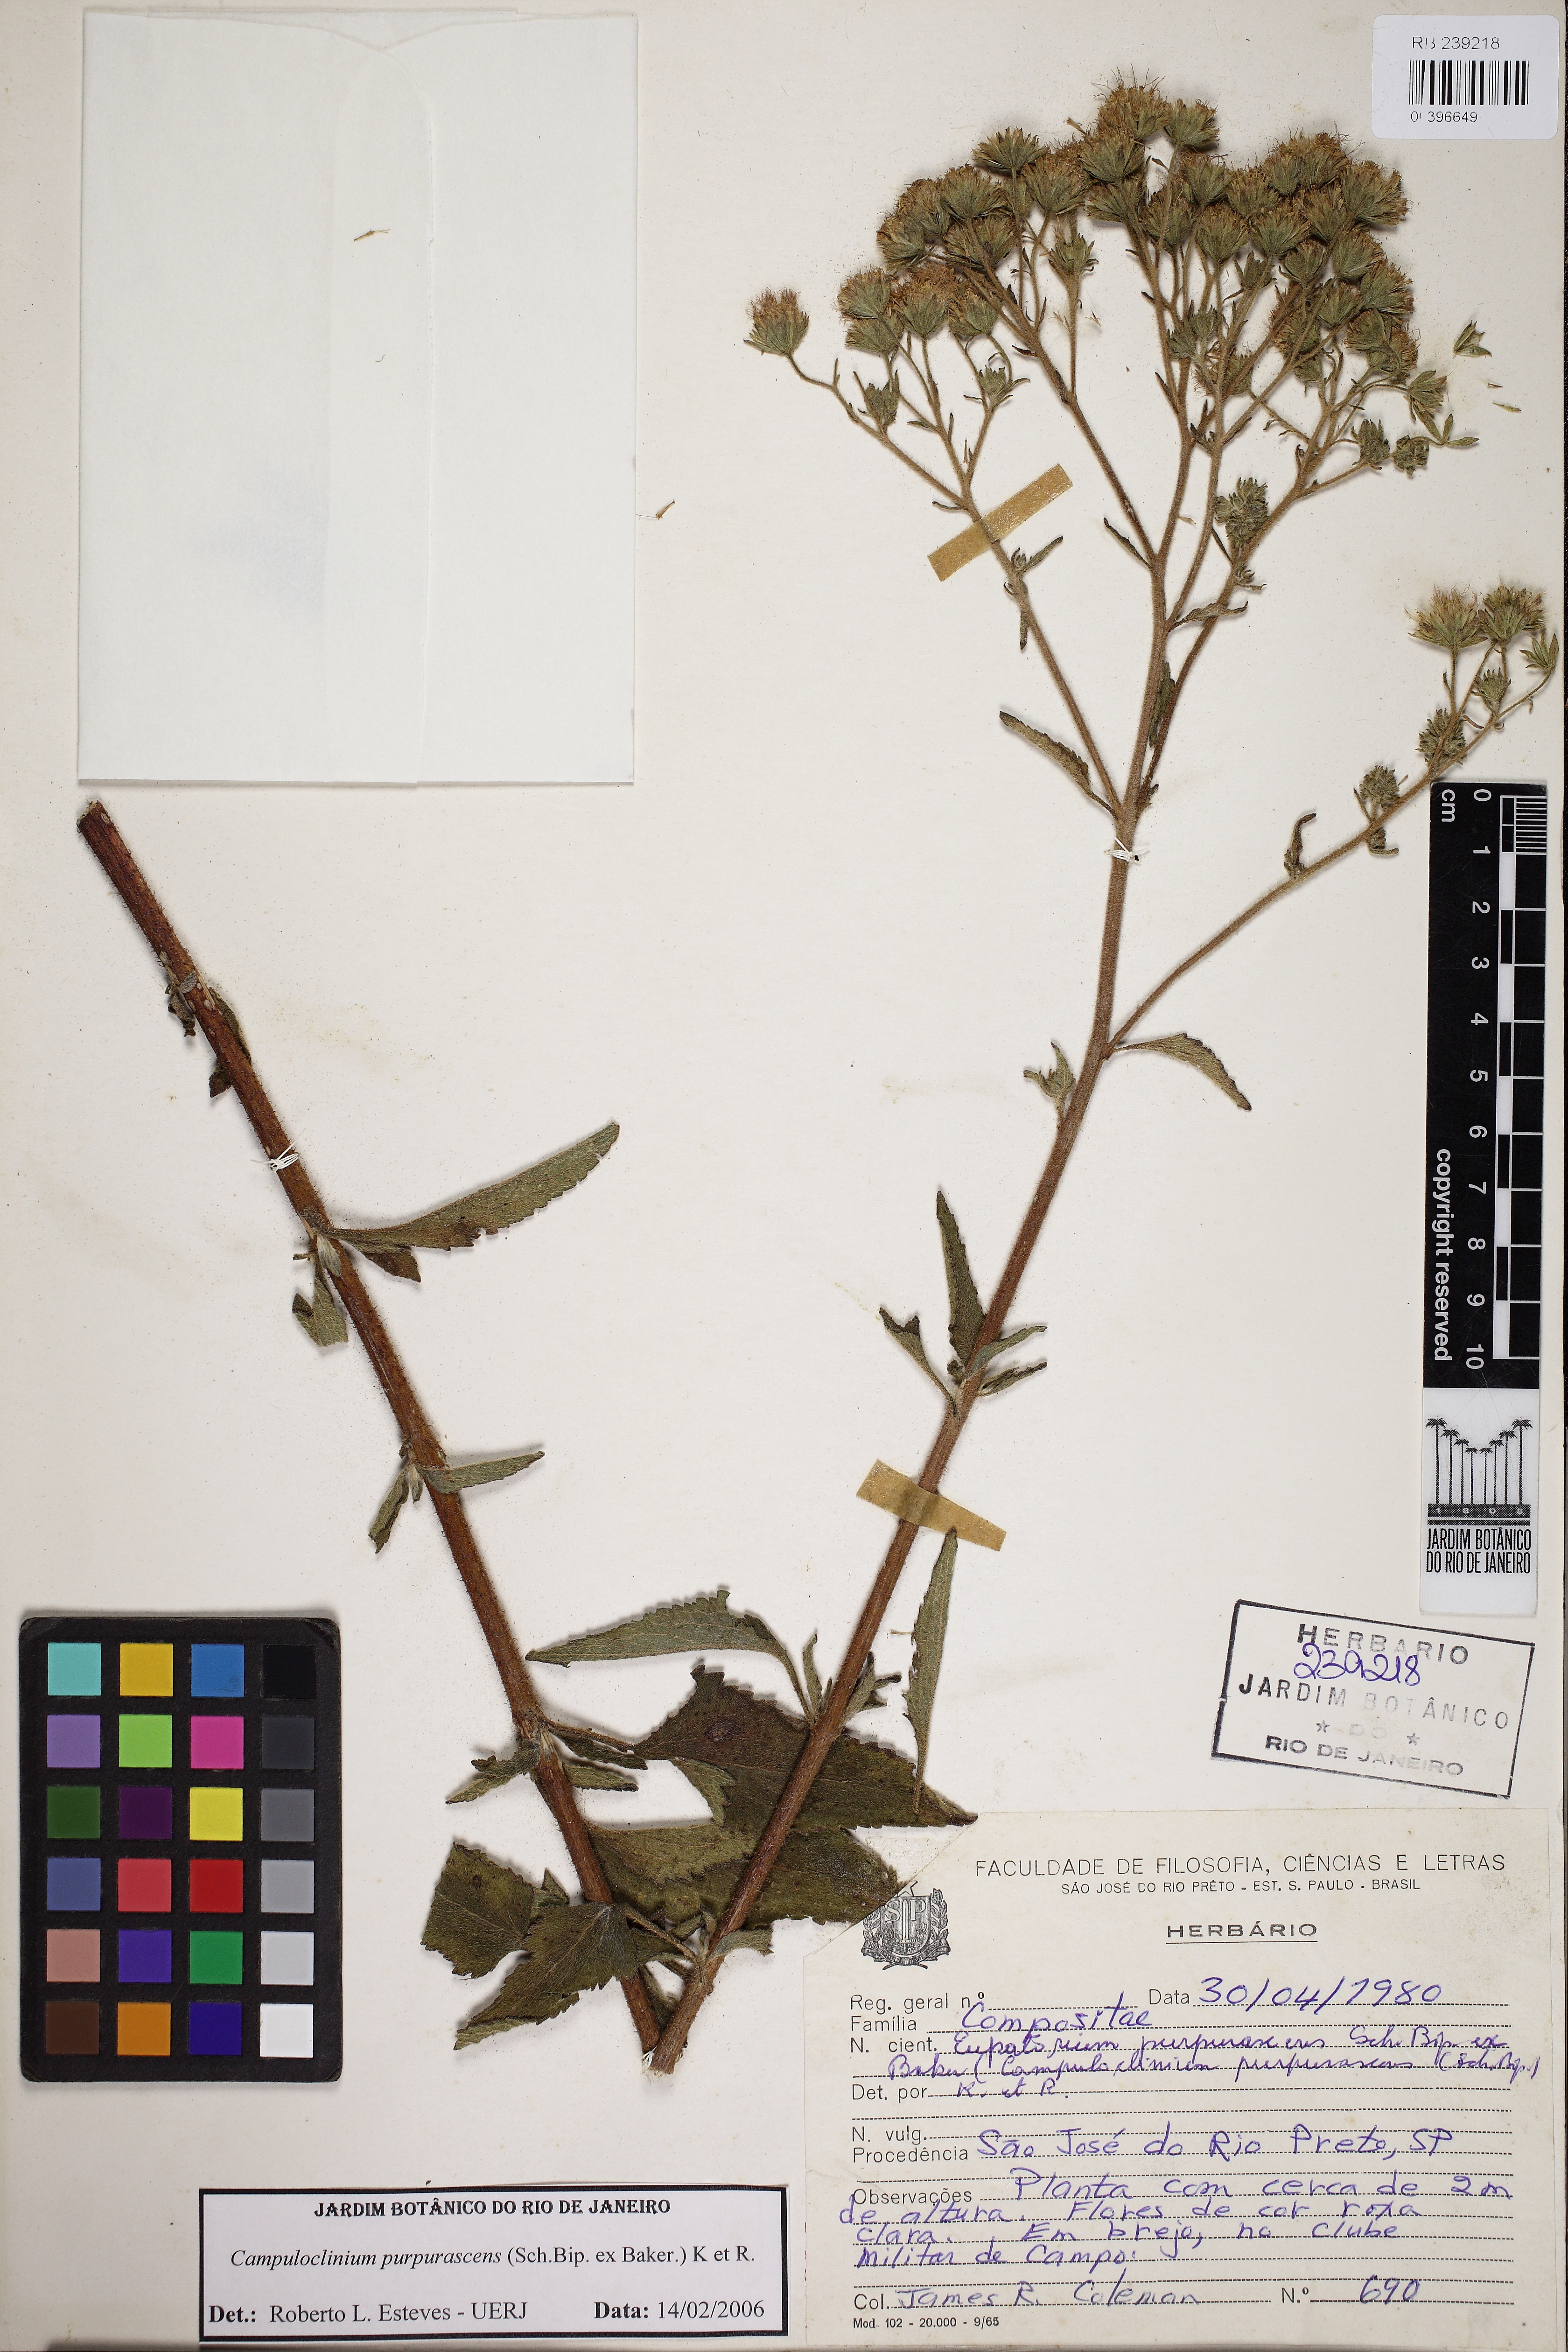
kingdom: Plantae
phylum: Tracheophyta
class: Magnoliopsida
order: Asterales
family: Asteraceae
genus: Campuloclinium
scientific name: Campuloclinium burchellii
